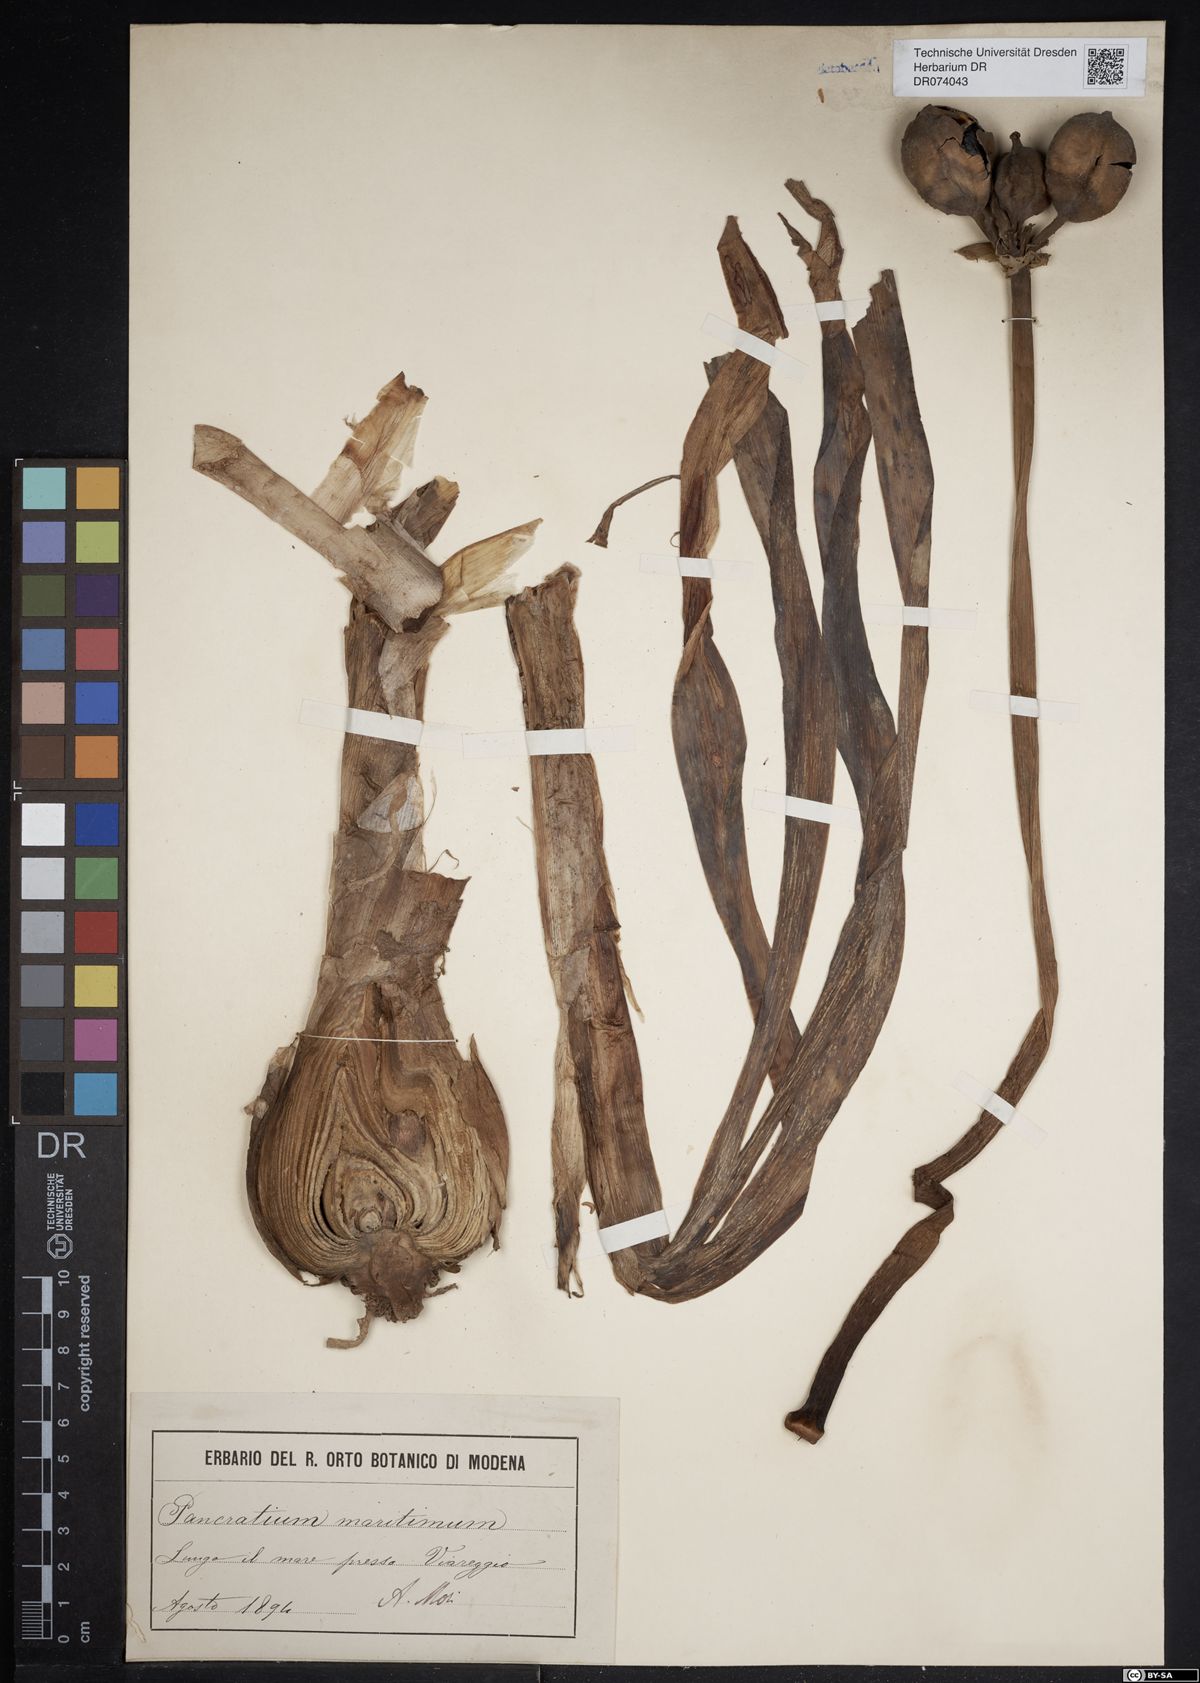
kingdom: Plantae
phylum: Tracheophyta
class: Liliopsida
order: Asparagales
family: Amaryllidaceae
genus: Pancratium
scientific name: Pancratium maritimum
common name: Sea-daffodil
